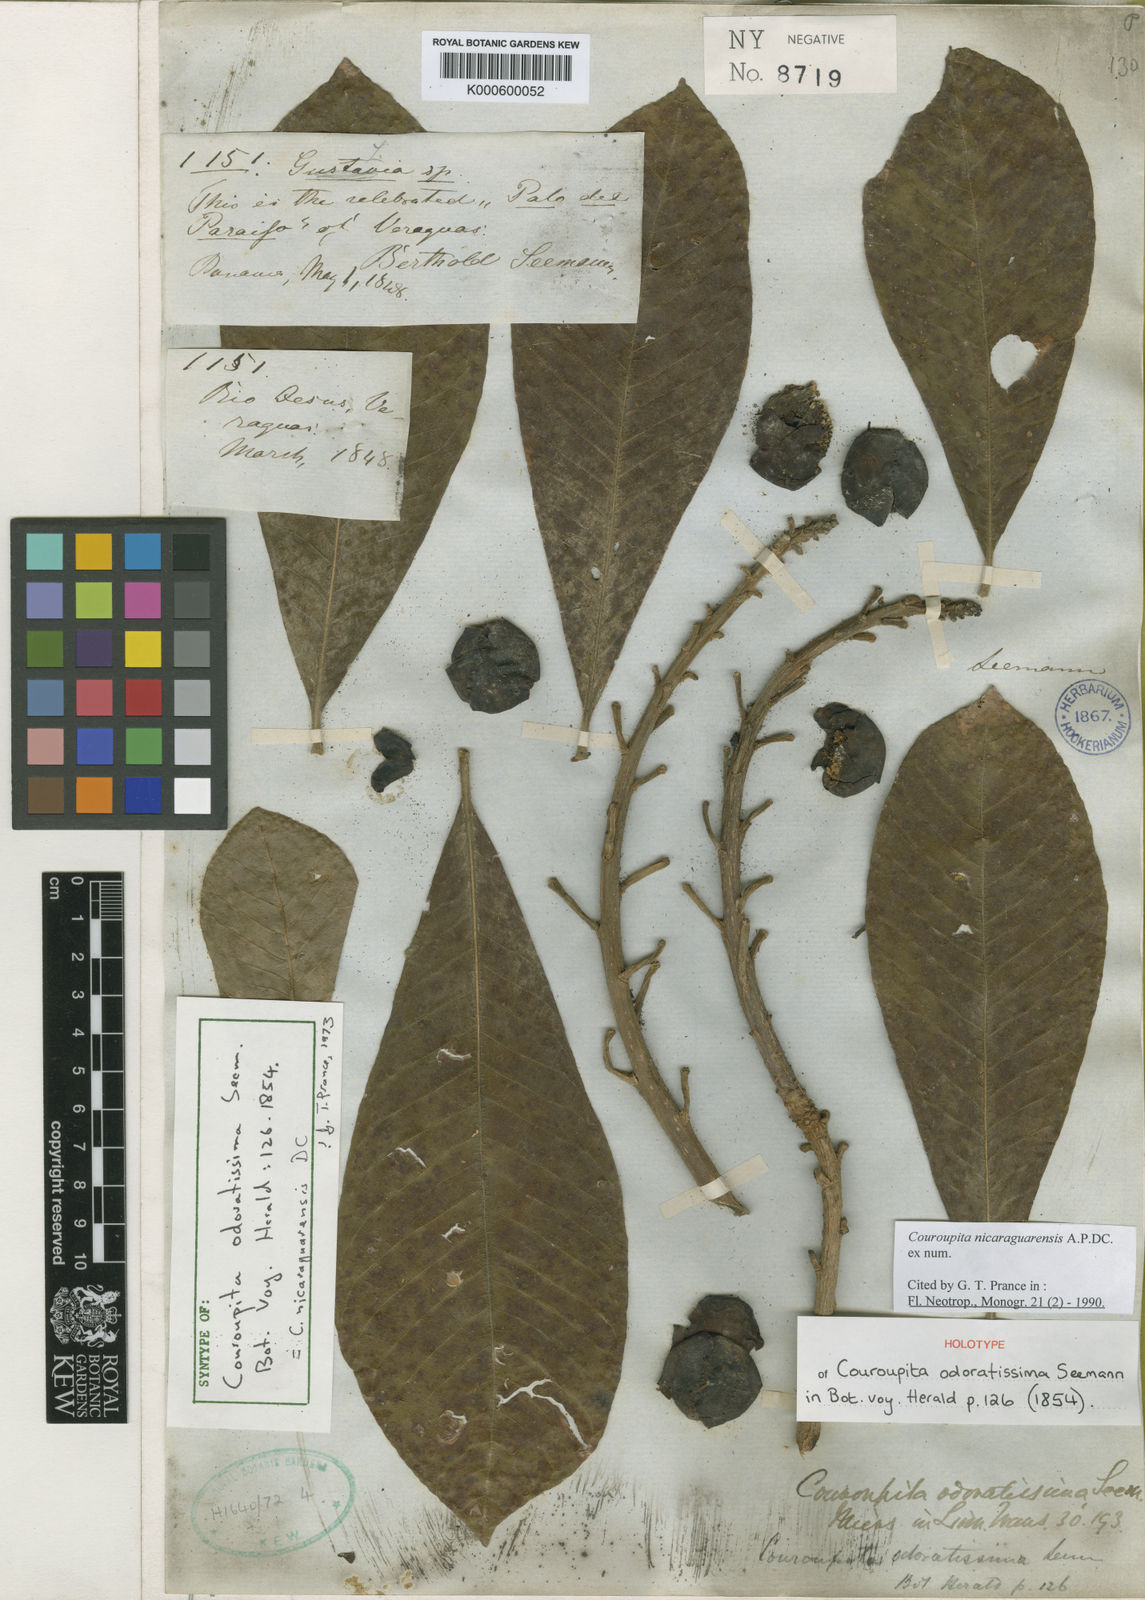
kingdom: Plantae
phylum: Tracheophyta
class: Magnoliopsida
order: Ericales
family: Lecythidaceae
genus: Couroupita
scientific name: Couroupita nicaraguarensis
